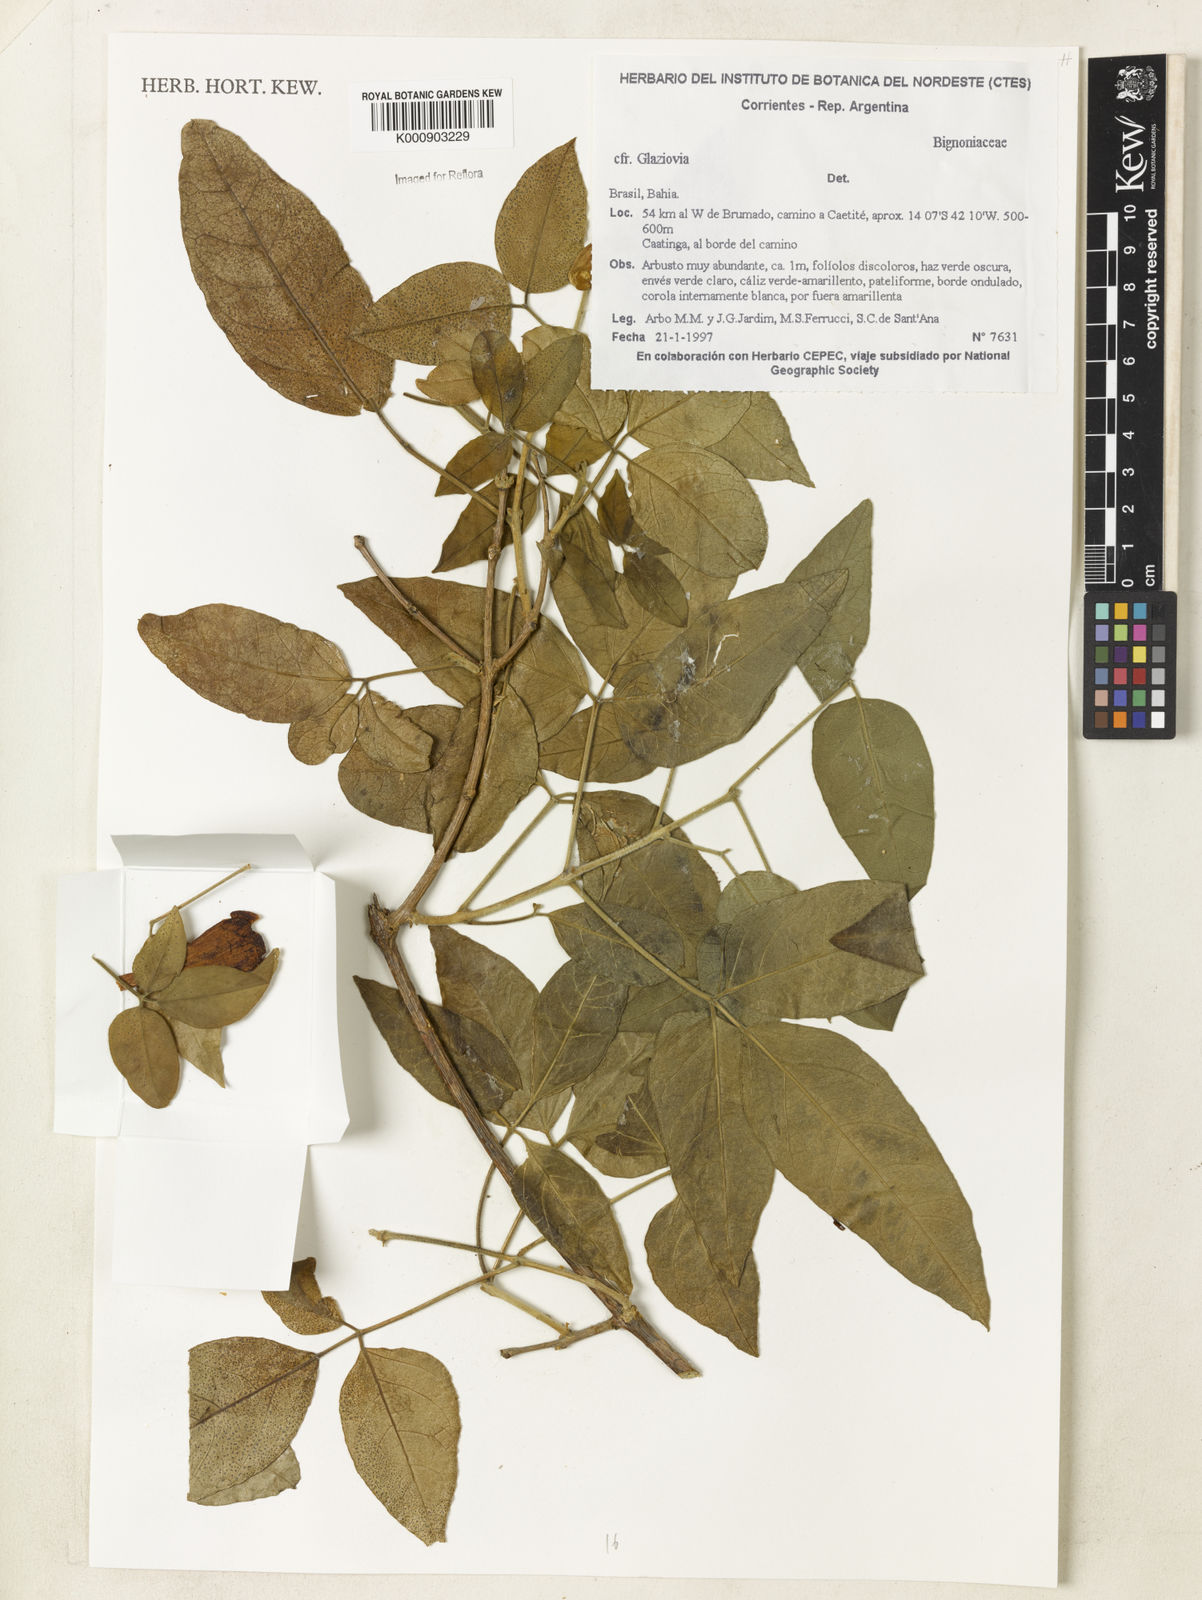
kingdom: Plantae
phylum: Tracheophyta
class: Magnoliopsida
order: Lamiales
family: Bignoniaceae
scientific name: Bignoniaceae
